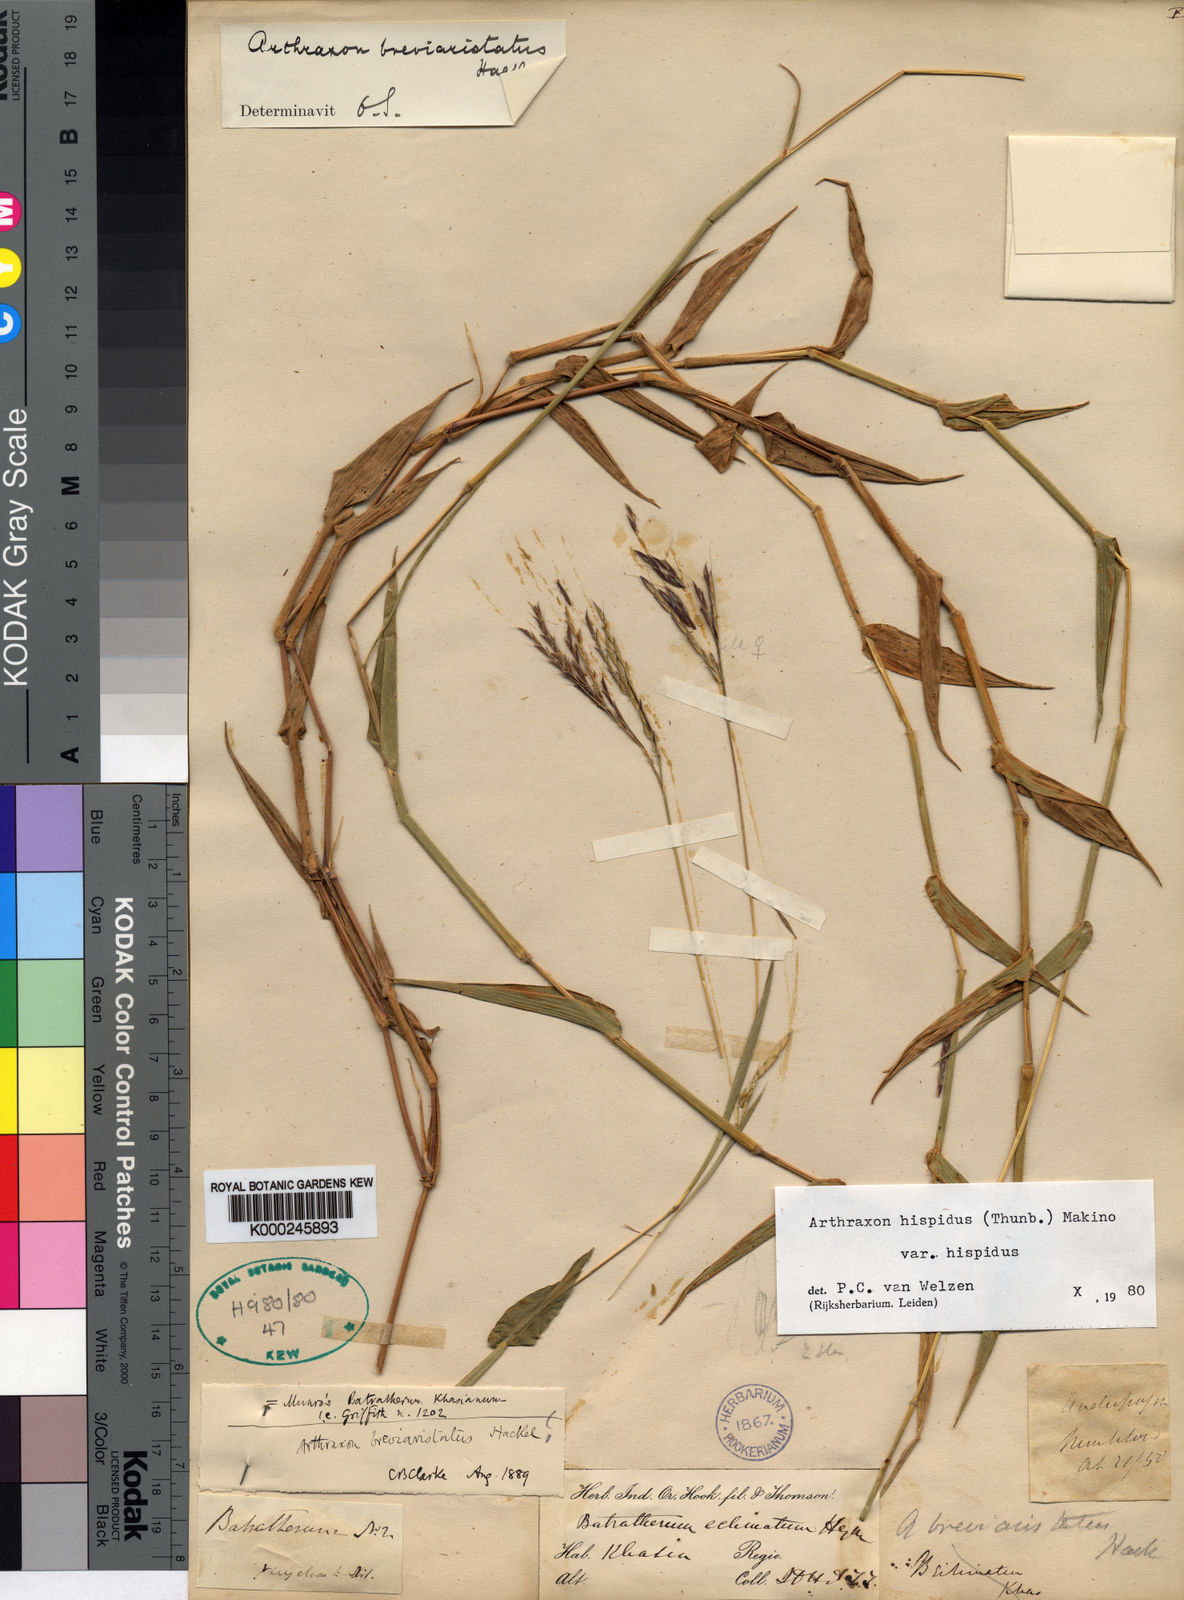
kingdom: Plantae
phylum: Tracheophyta
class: Liliopsida
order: Poales
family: Poaceae
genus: Arthraxon
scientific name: Arthraxon typicus
